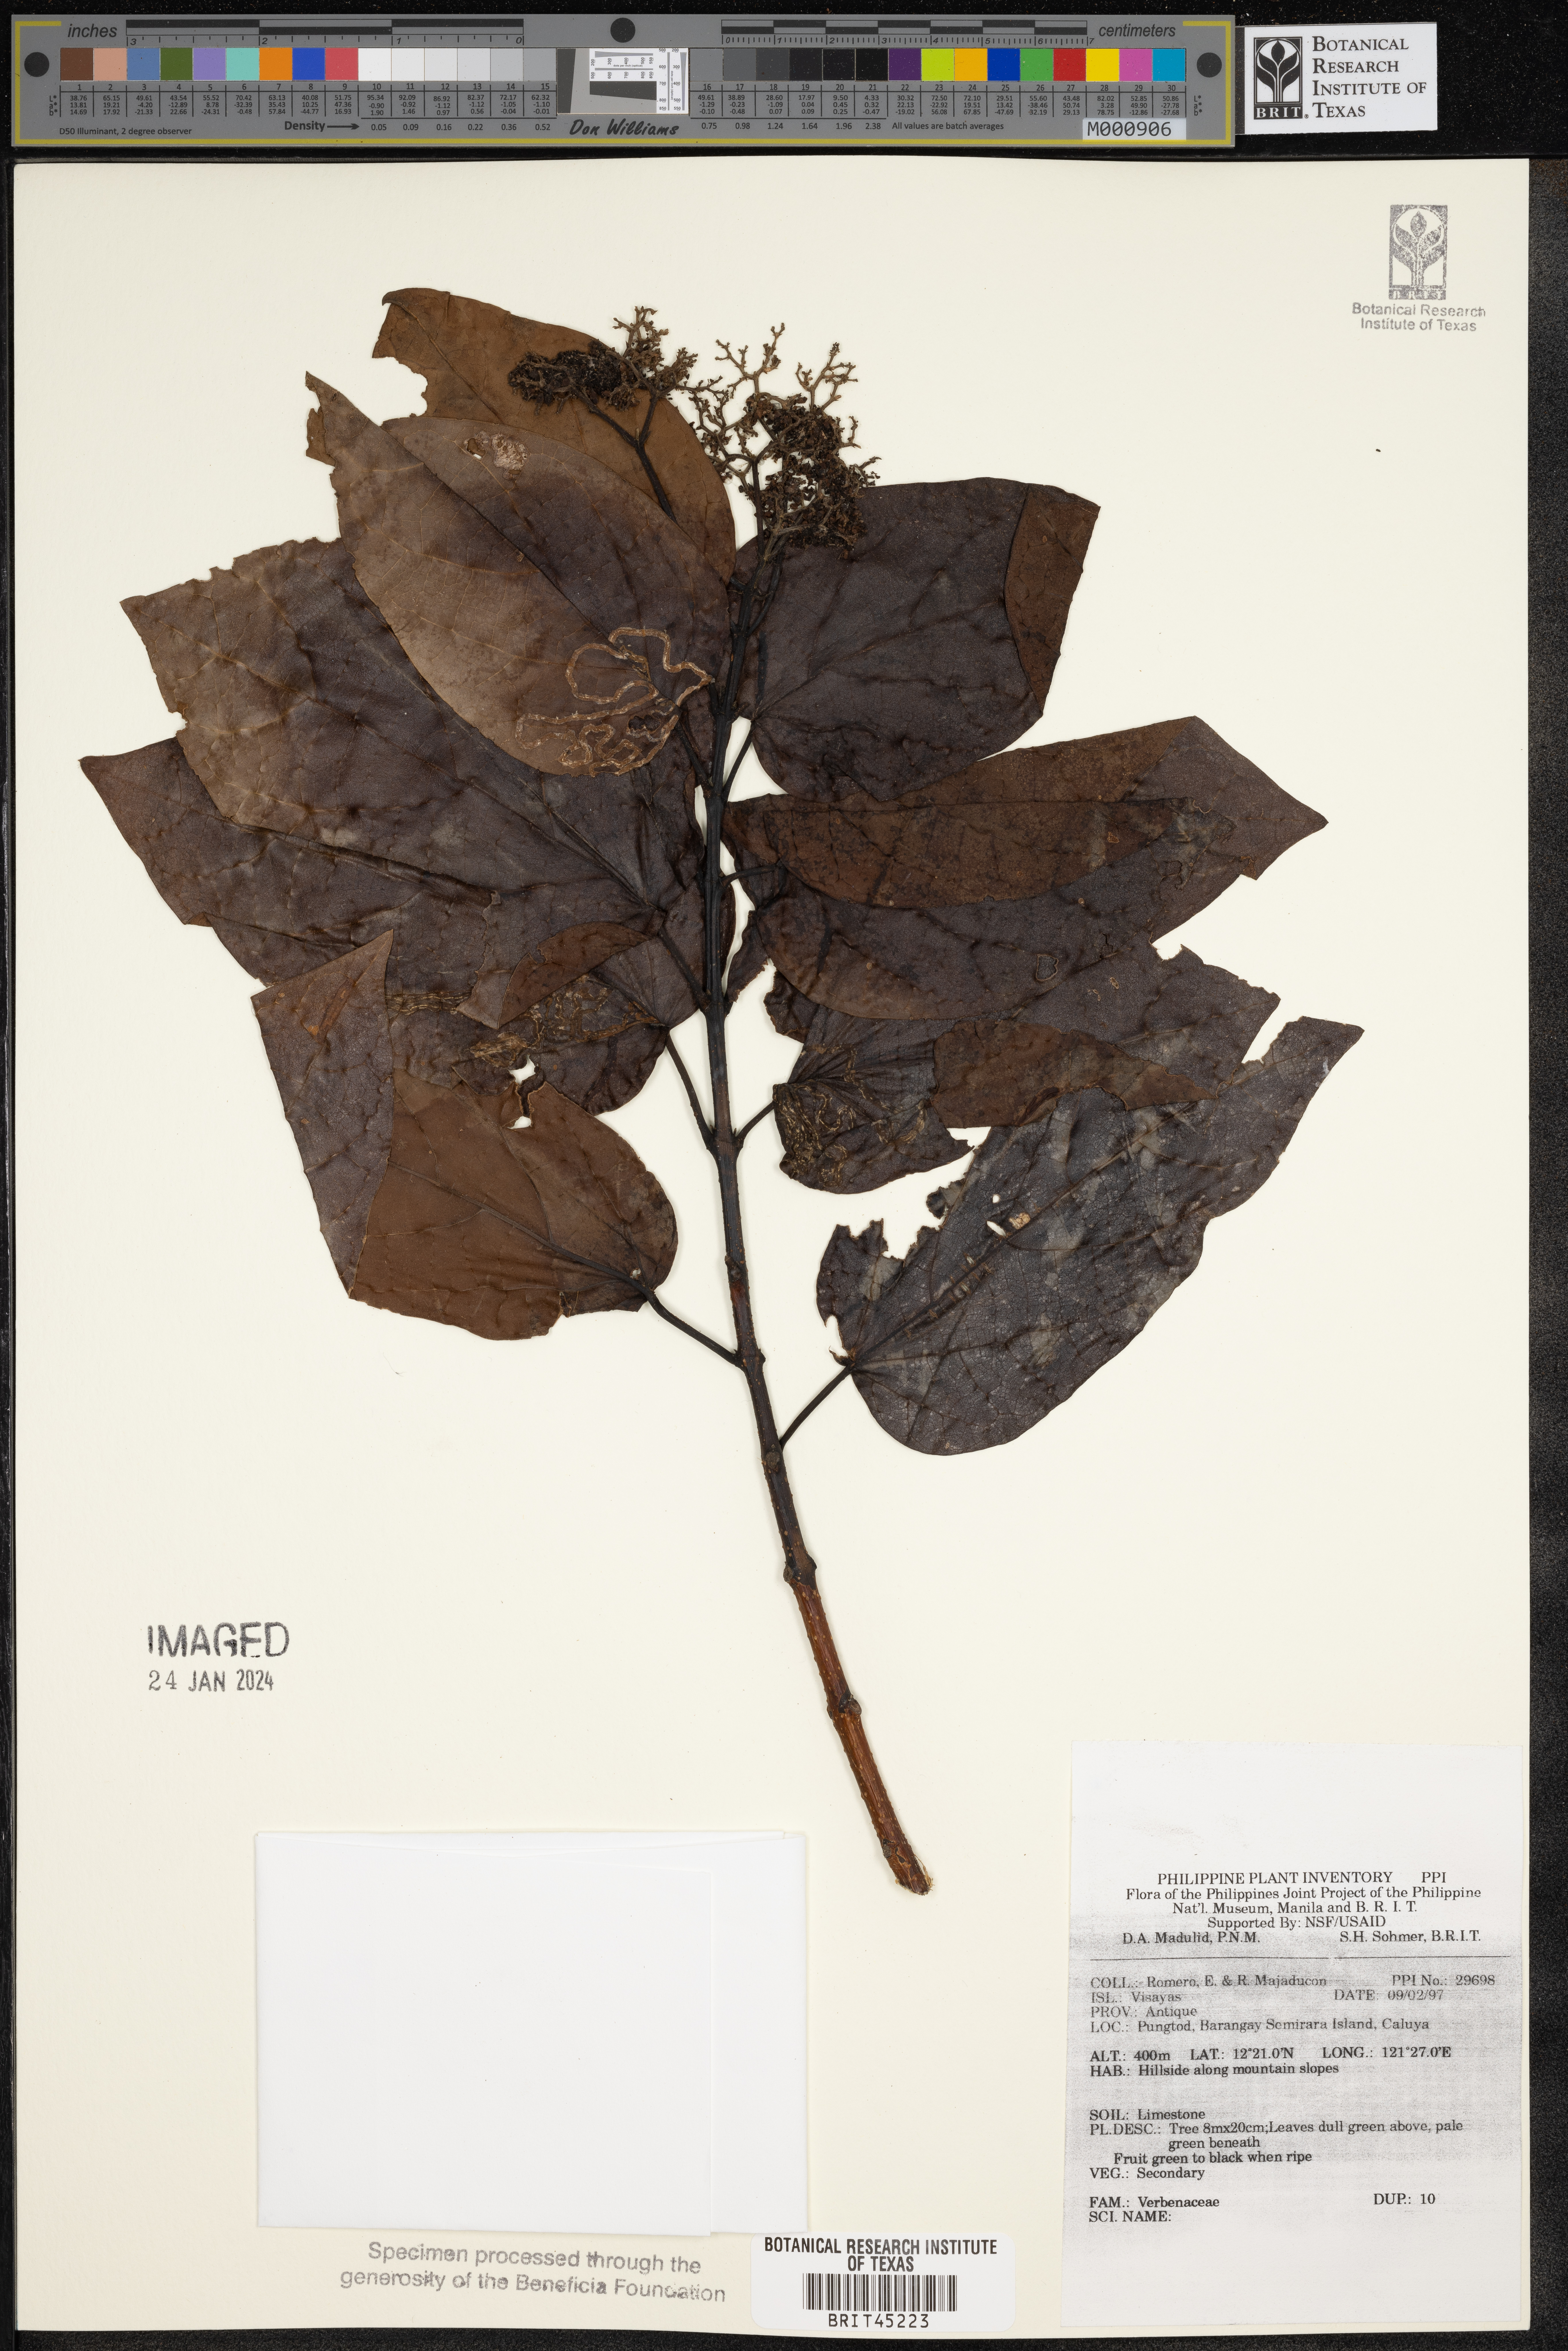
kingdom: Plantae
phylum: Tracheophyta
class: Magnoliopsida
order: Lamiales
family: Verbenaceae
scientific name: Verbenaceae
